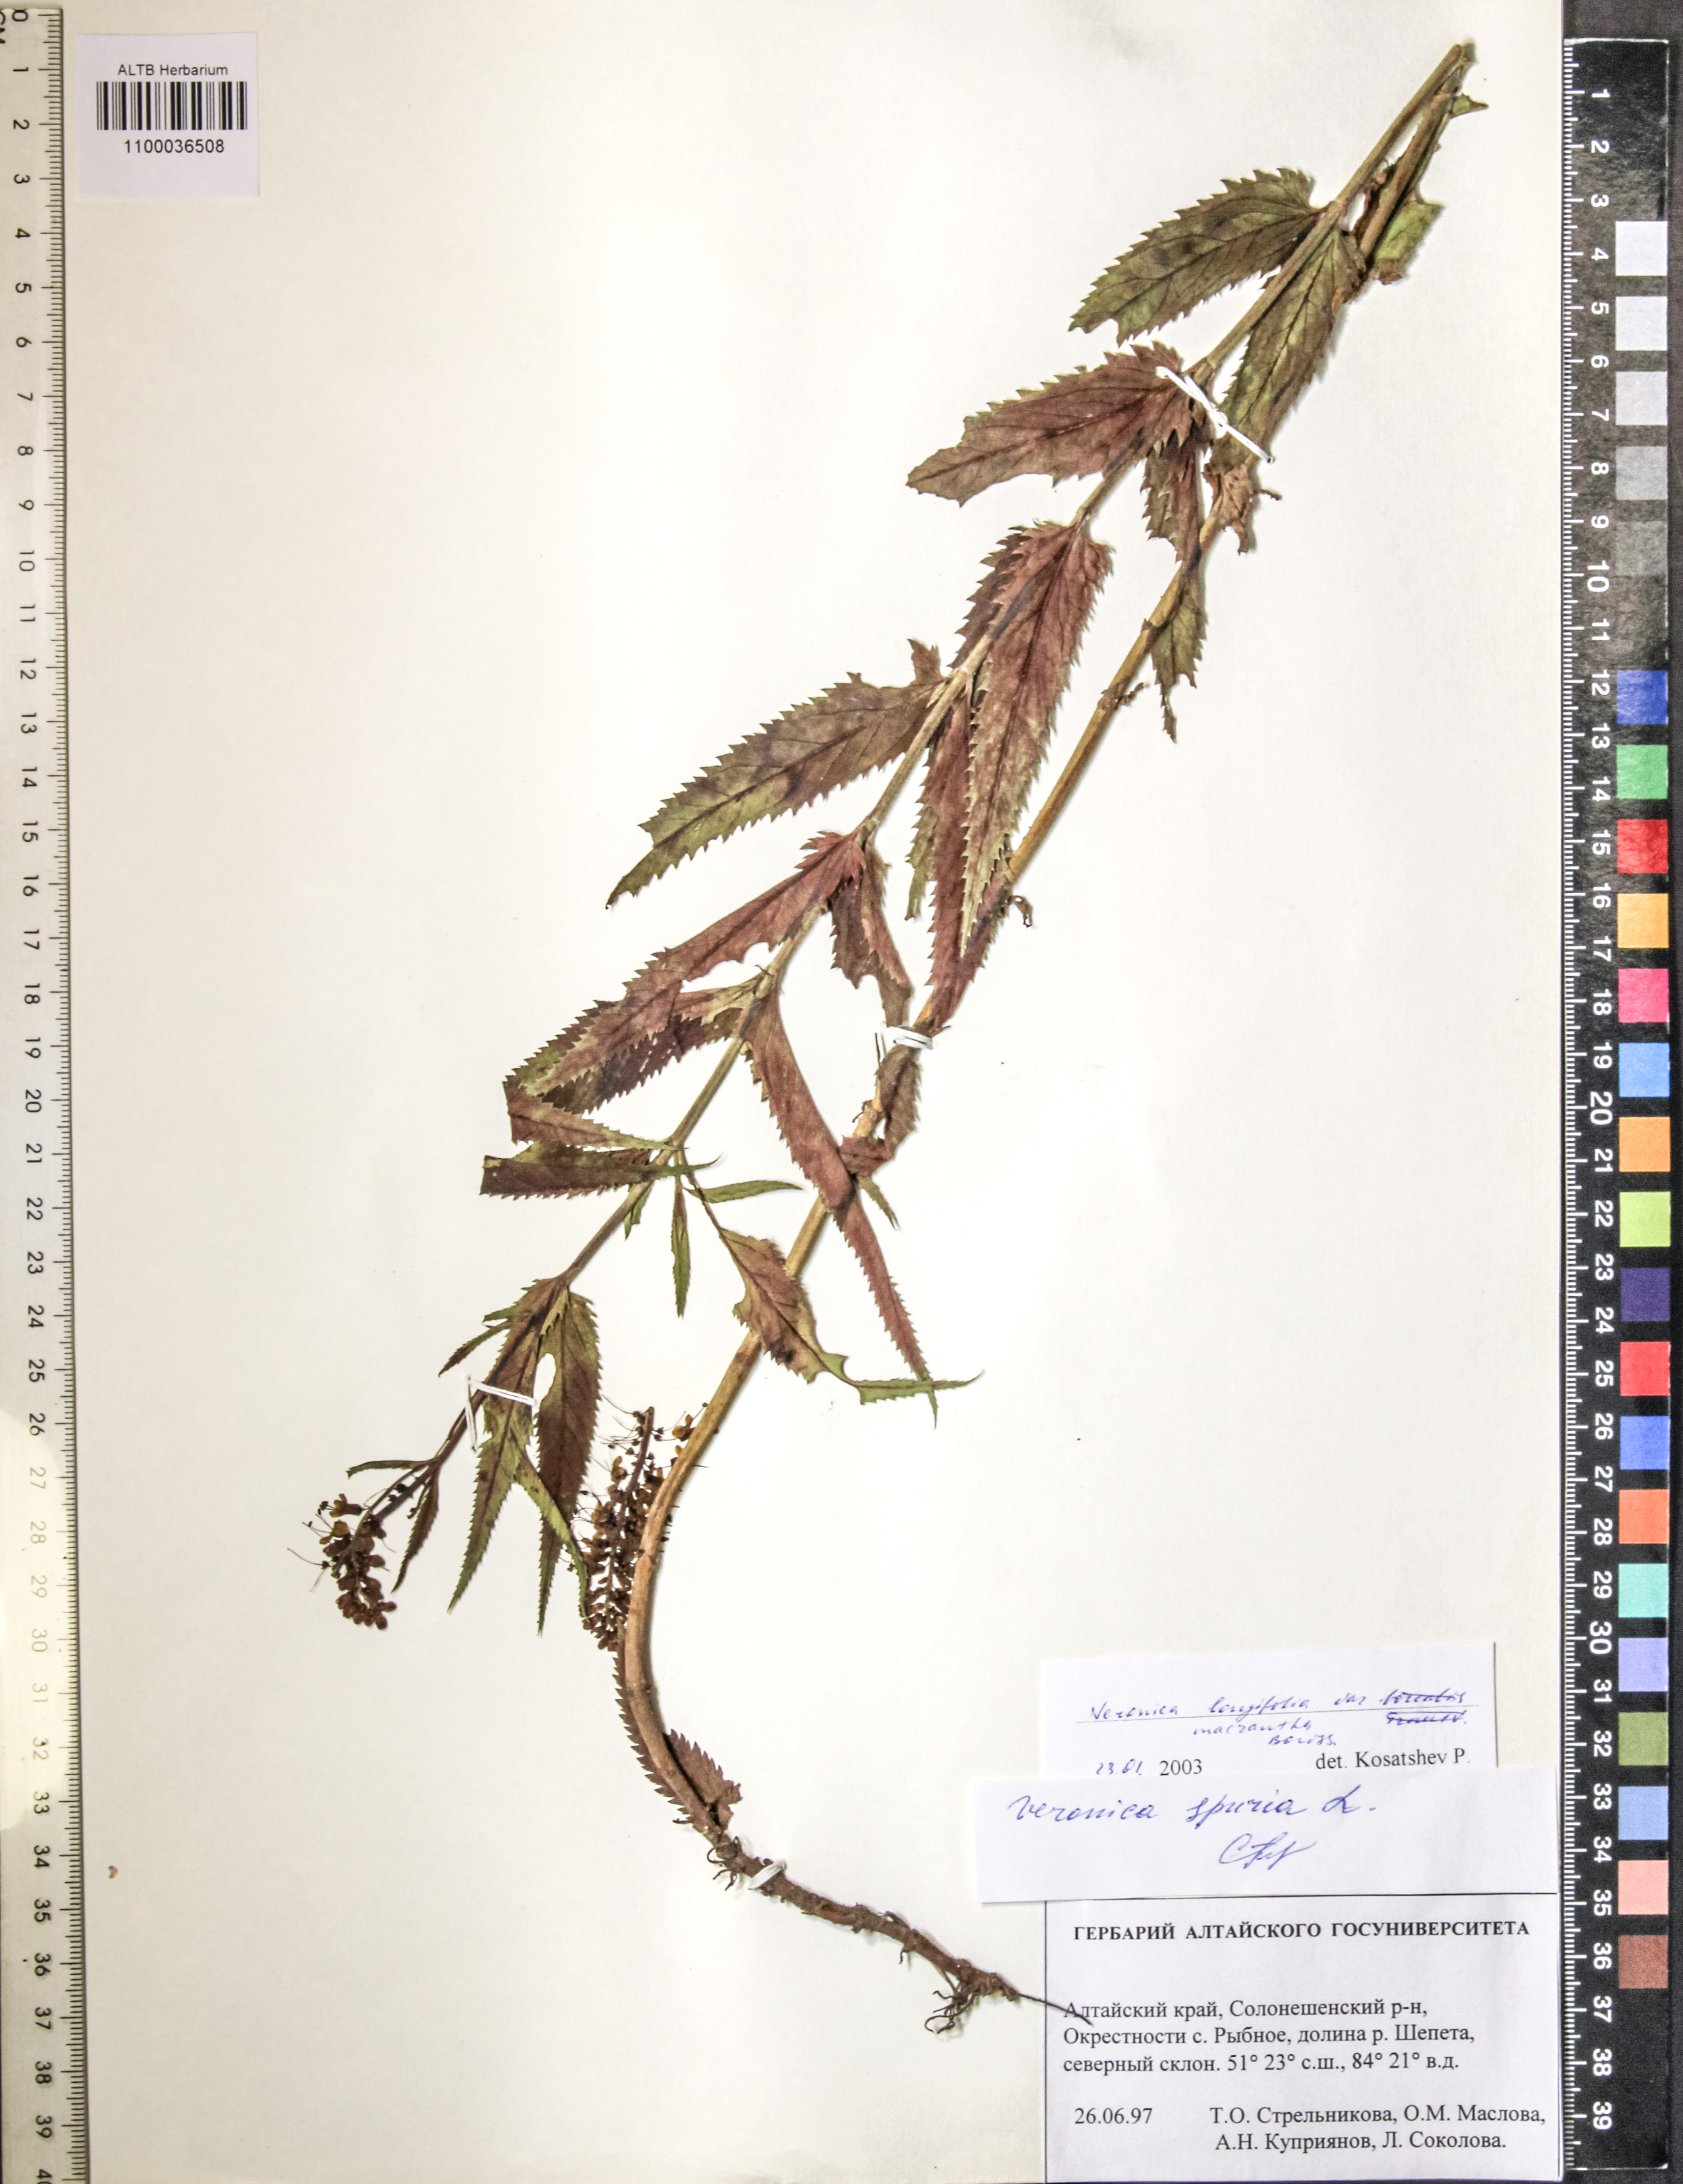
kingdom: Plantae
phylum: Tracheophyta
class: Magnoliopsida
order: Lamiales
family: Plantaginaceae
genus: Veronica
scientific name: Veronica longifolia
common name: Garden speedwell
